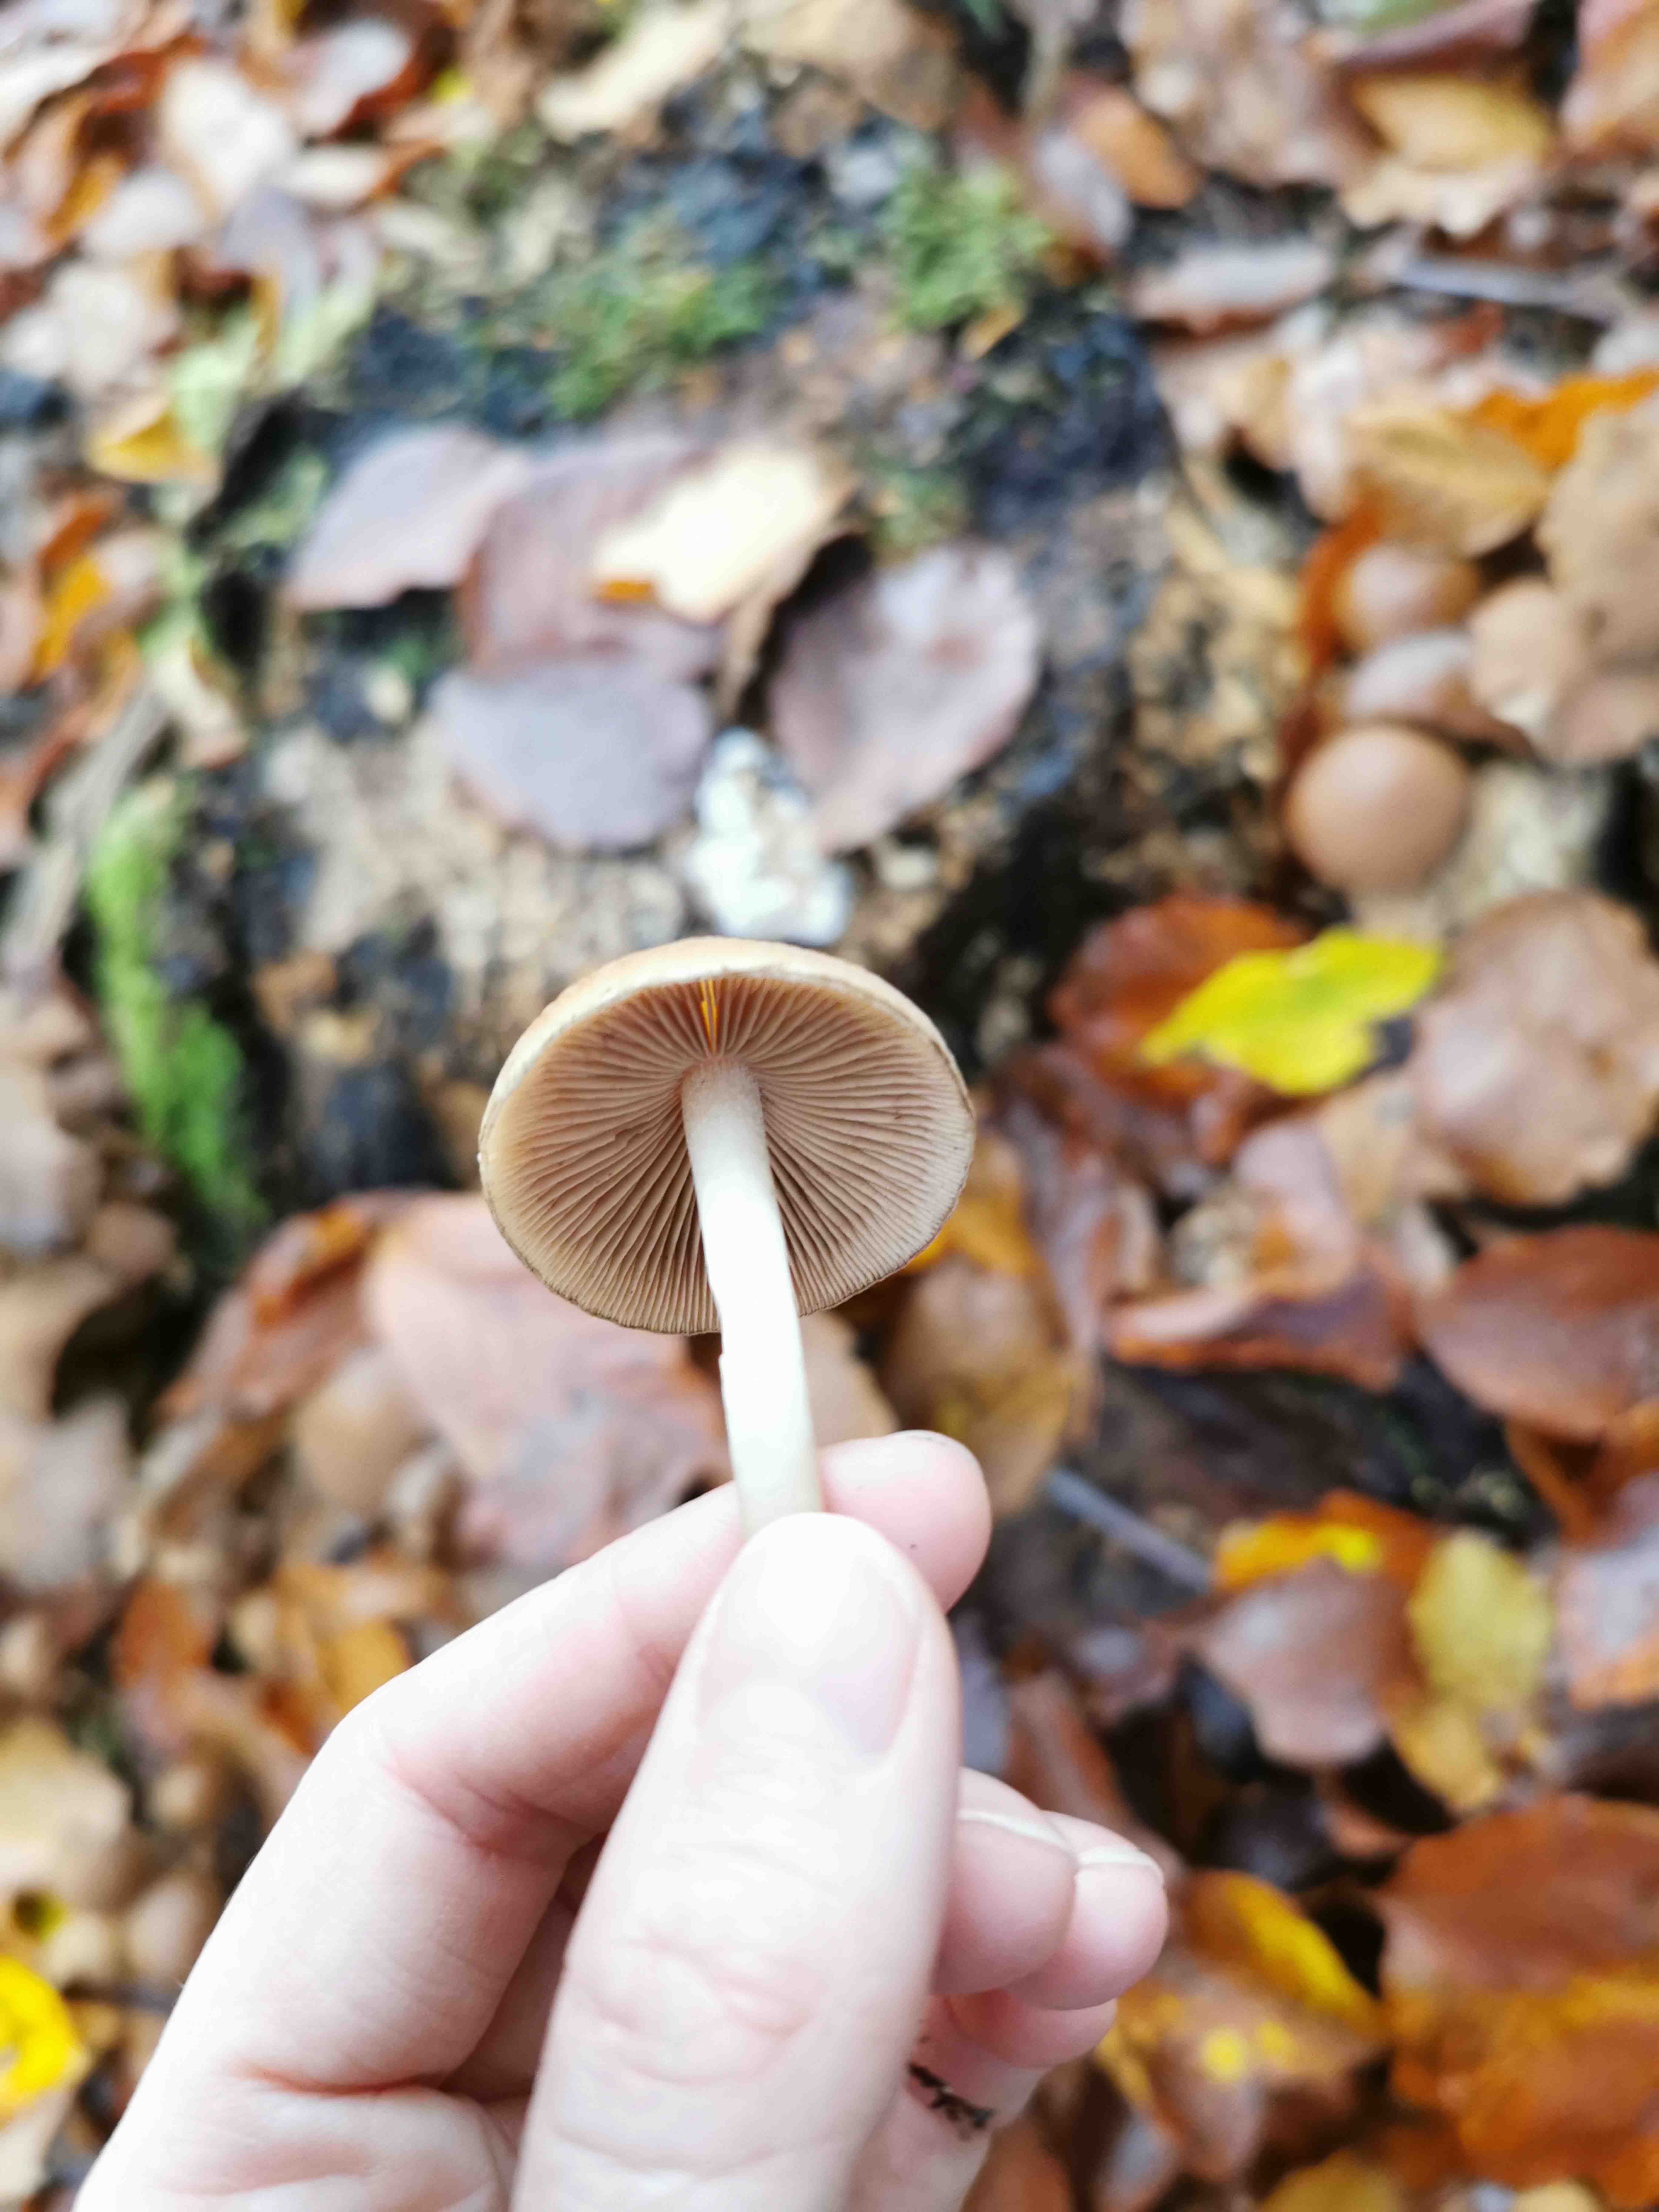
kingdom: Fungi
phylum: Basidiomycota
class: Agaricomycetes
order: Agaricales
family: Psathyrellaceae
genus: Psathyrella
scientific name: Psathyrella piluliformis
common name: lysstokket mørkhat
